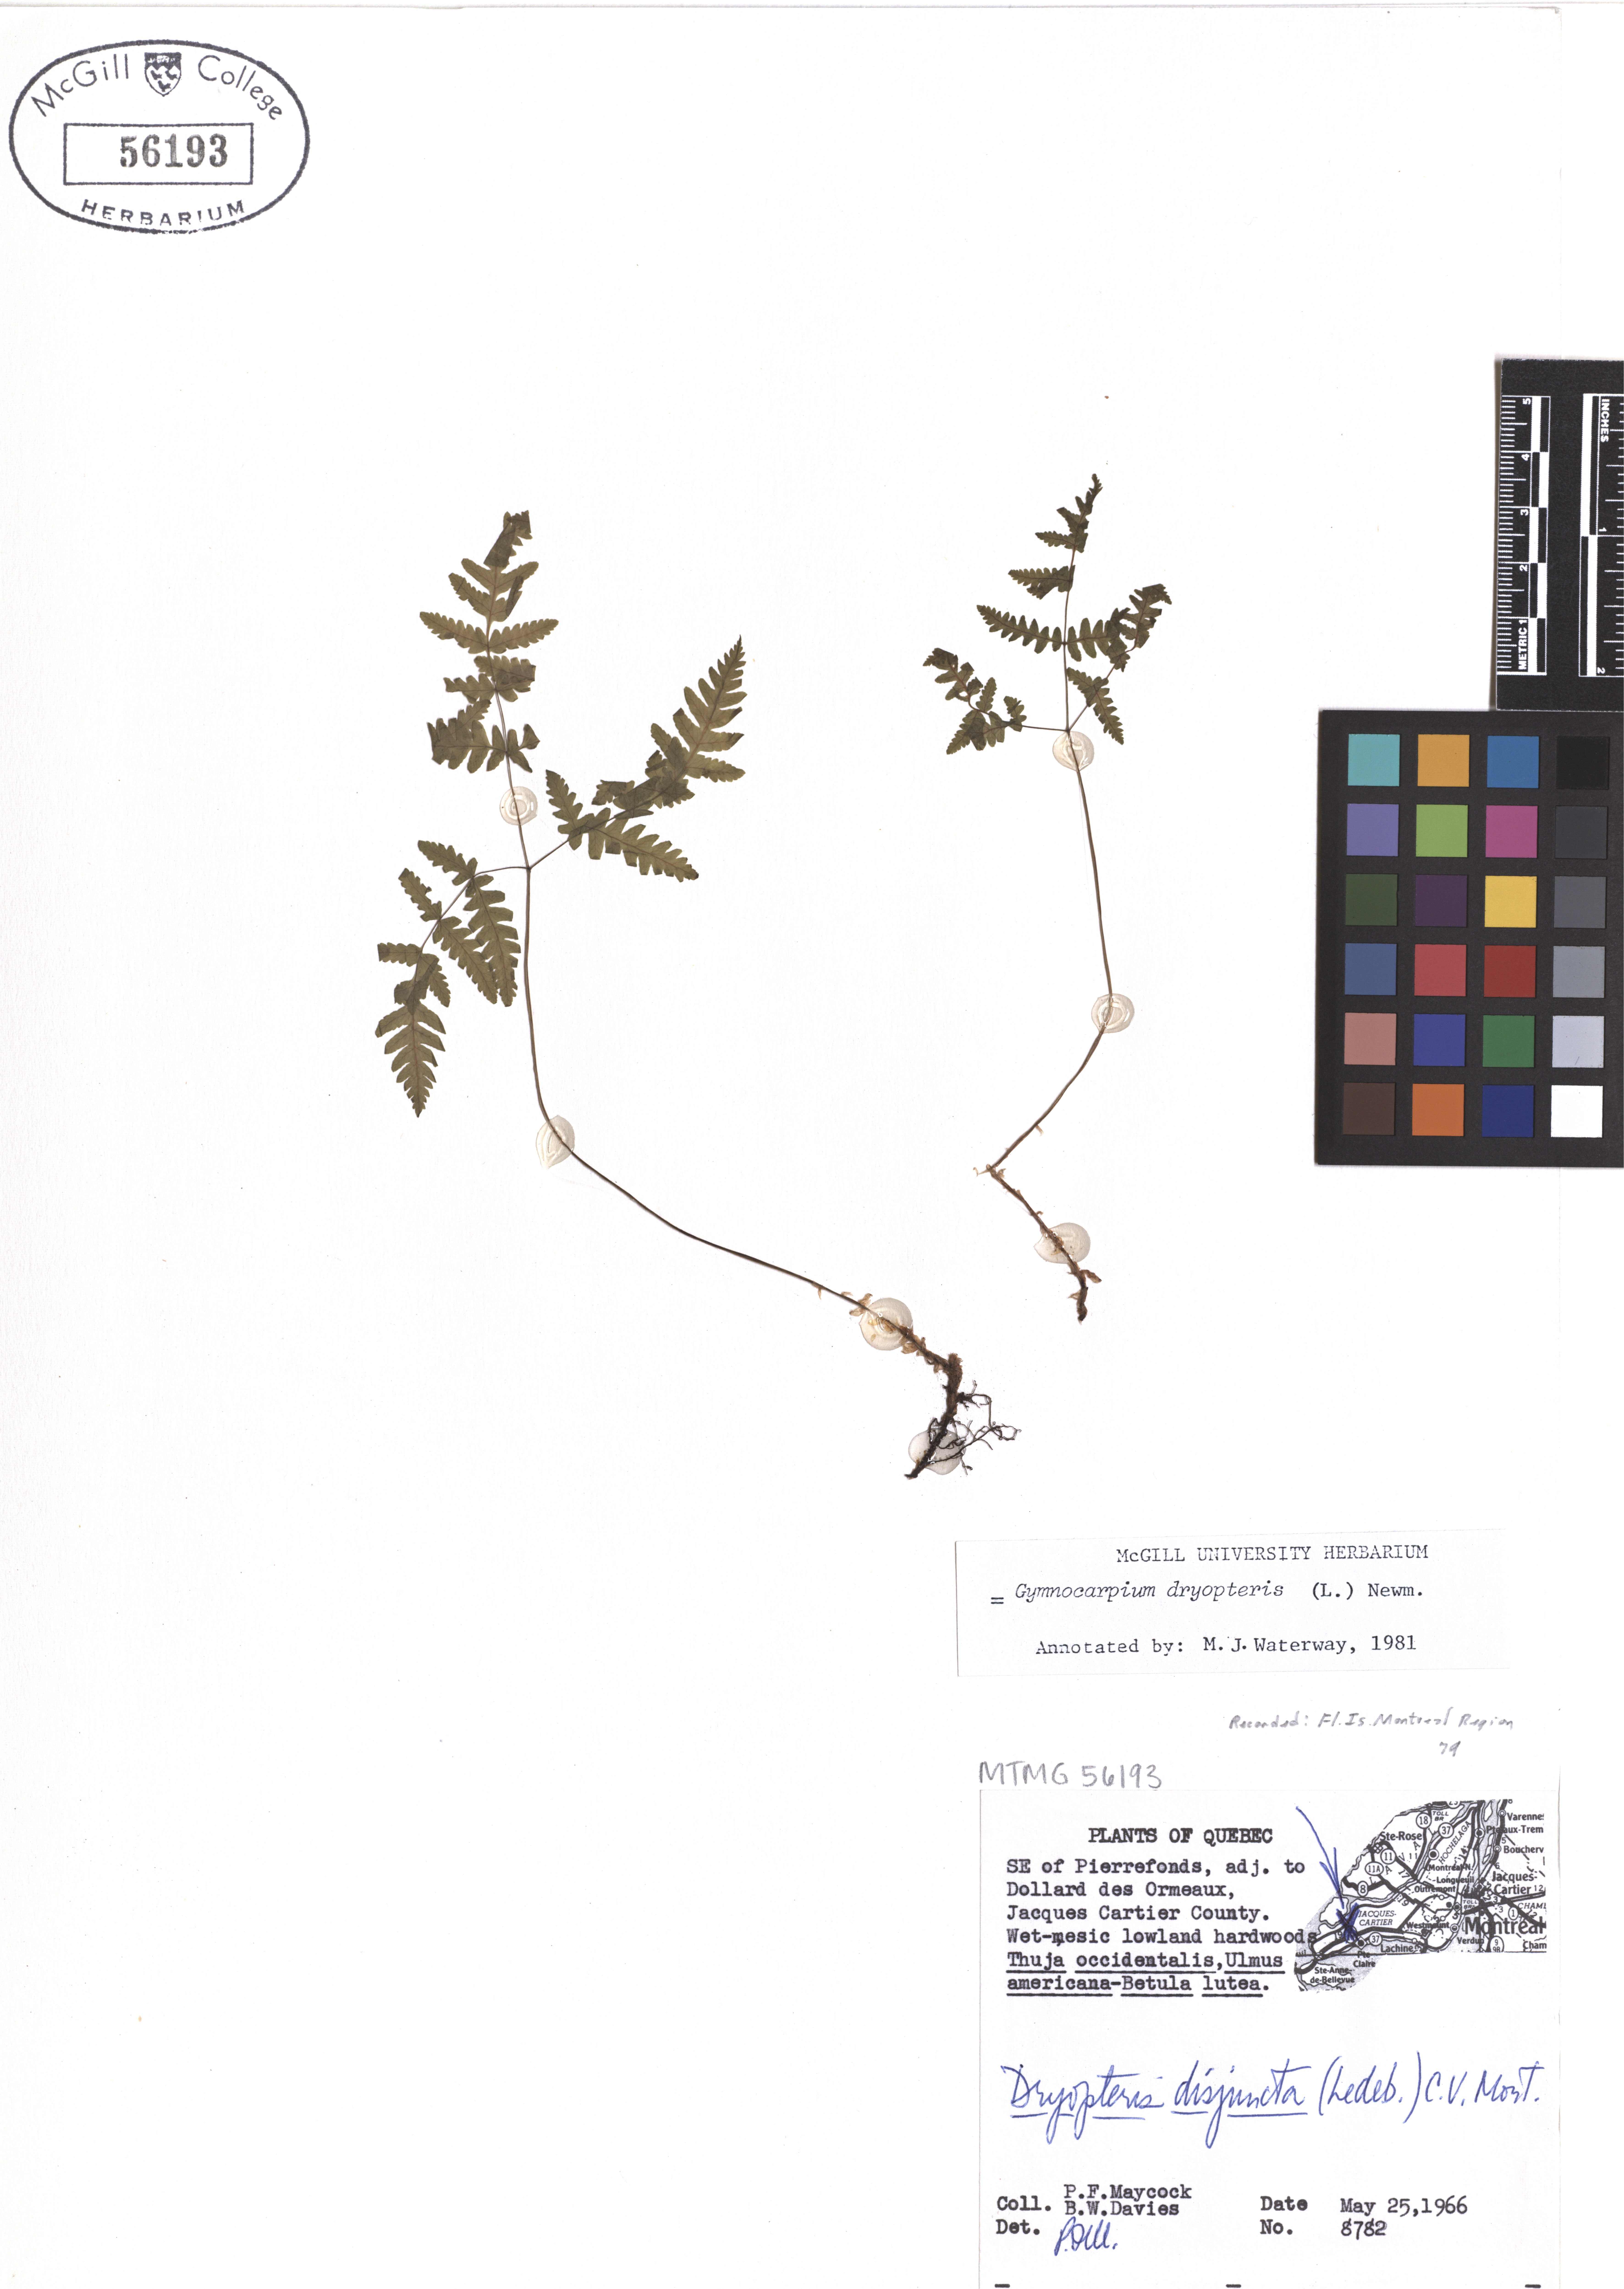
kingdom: Plantae
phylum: Tracheophyta
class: Polypodiopsida
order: Polypodiales
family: Cystopteridaceae
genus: Gymnocarpium
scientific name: Gymnocarpium dryopteris
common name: Oak fern
